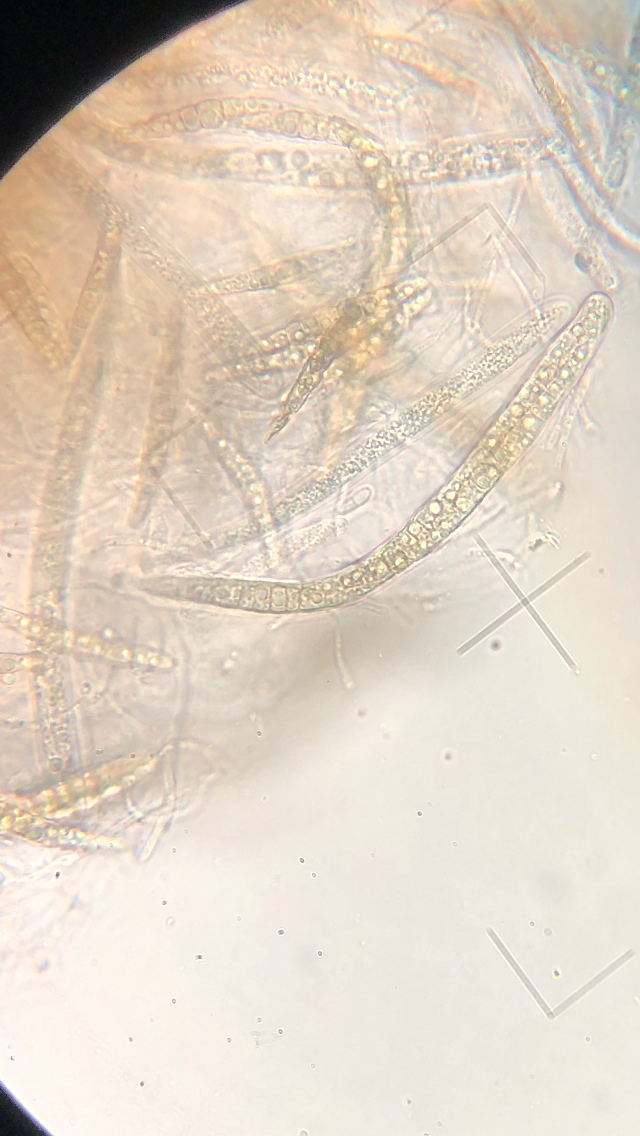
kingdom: Fungi
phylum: Ascomycota
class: Dothideomycetes
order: Pleosporales
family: Leptosphaeriaceae
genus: Leptosphaeria
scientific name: Leptosphaeria acuta
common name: spids kulkegle
